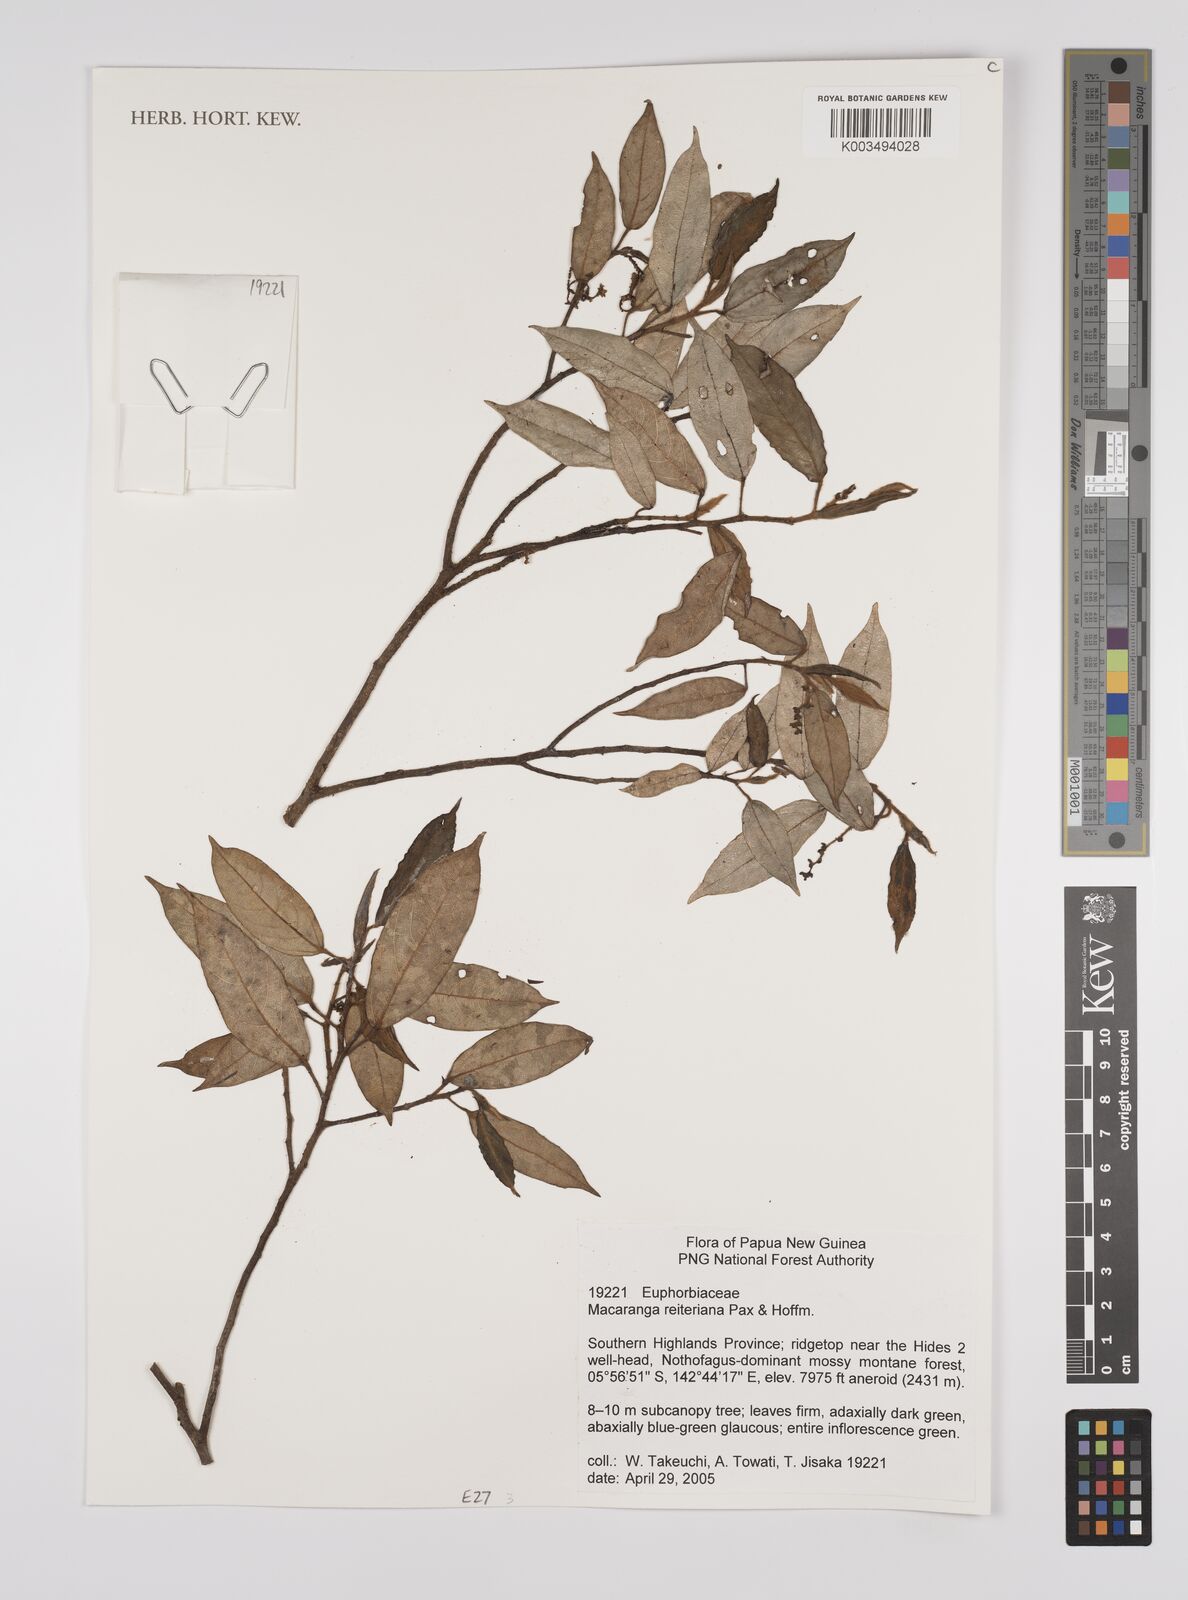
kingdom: Plantae
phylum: Tracheophyta
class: Magnoliopsida
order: Malpighiales
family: Euphorbiaceae
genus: Macaranga
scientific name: Macaranga reiteriana
